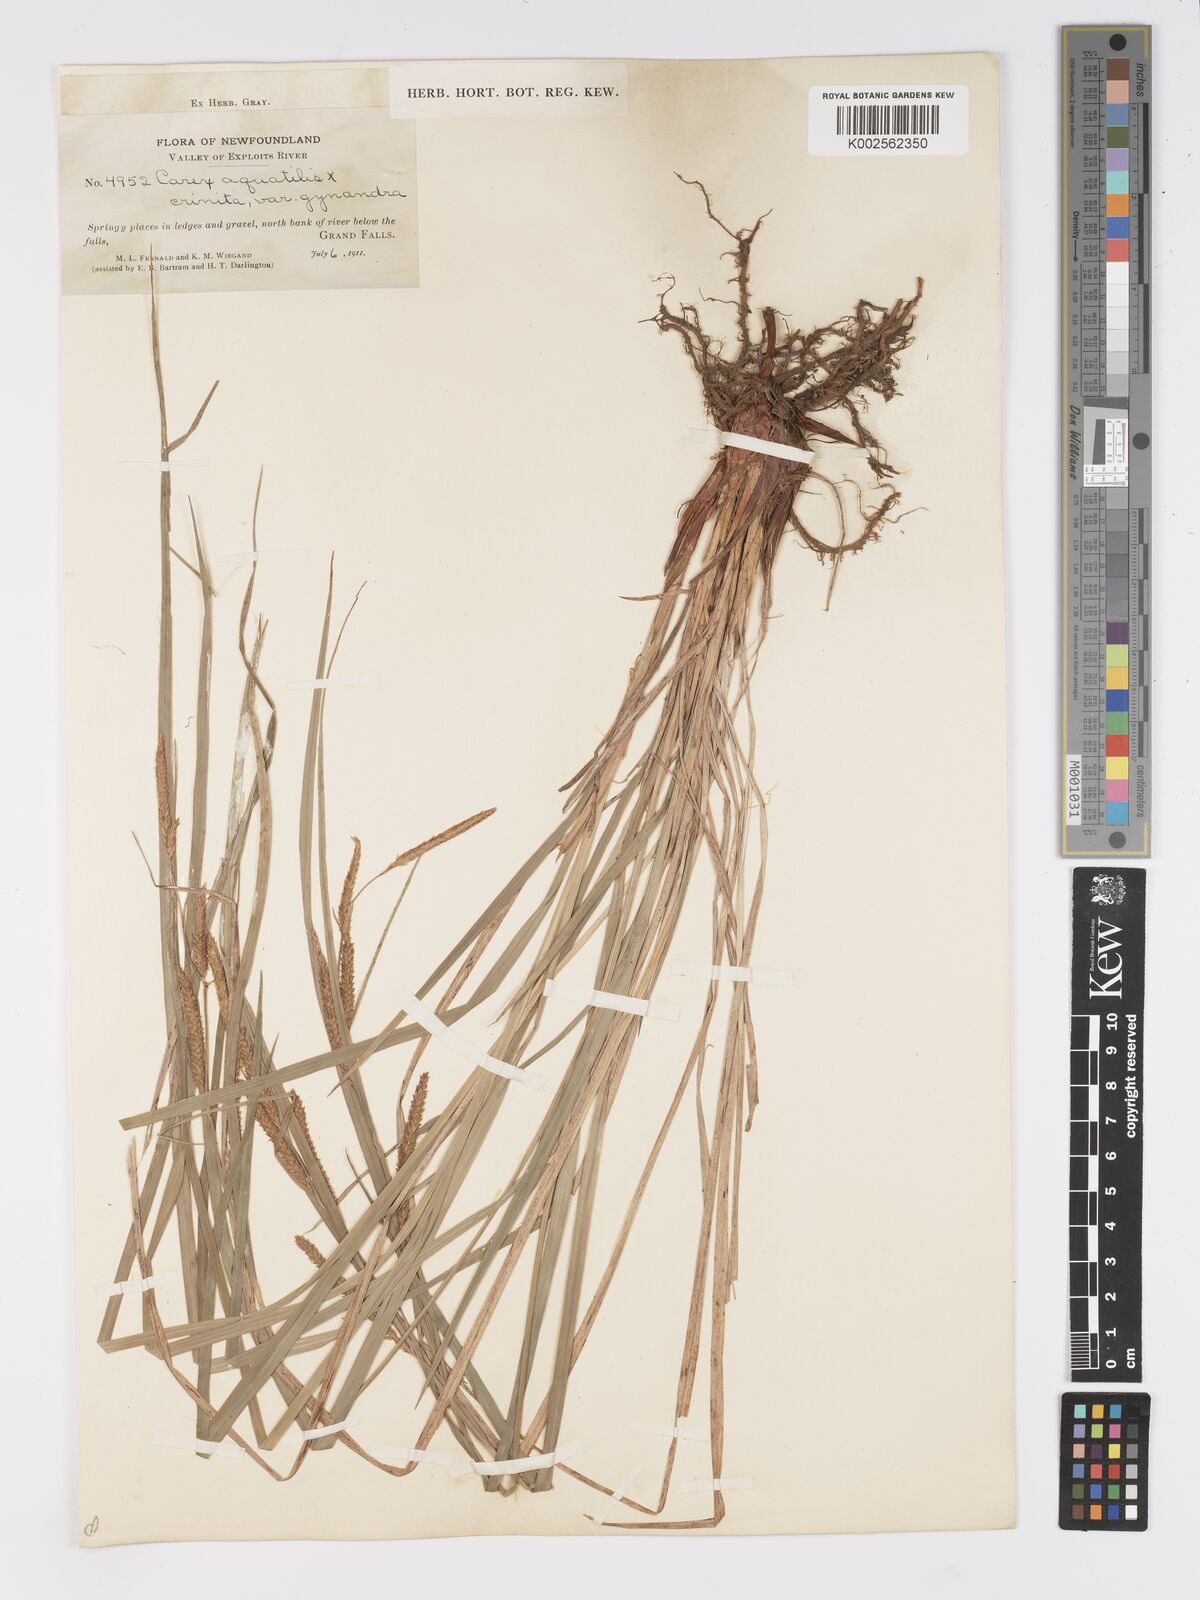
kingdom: Plantae
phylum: Tracheophyta
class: Liliopsida
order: Poales
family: Cyperaceae
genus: Carex
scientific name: Carex aquatilis
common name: Water sedge
